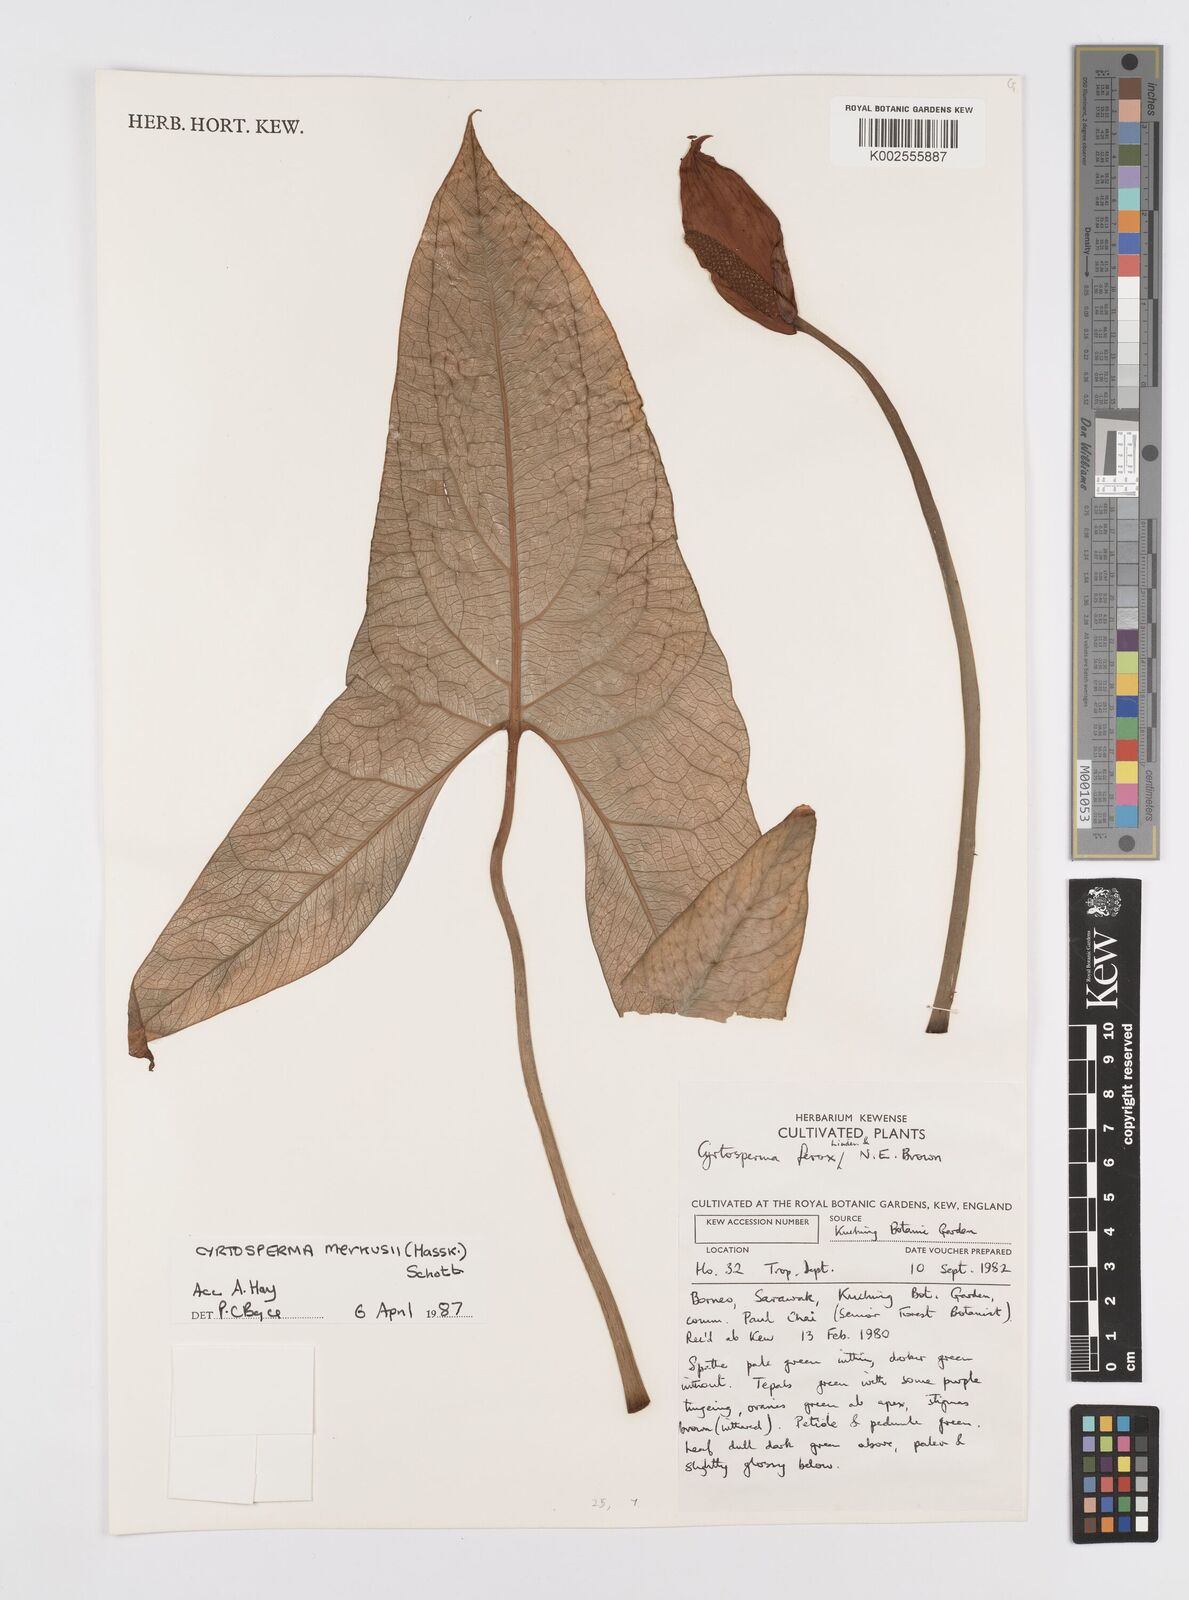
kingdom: Plantae
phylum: Tracheophyta
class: Liliopsida
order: Alismatales
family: Araceae
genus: Cyrtosperma
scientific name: Cyrtosperma merkusii
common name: Giant swamp-taro
